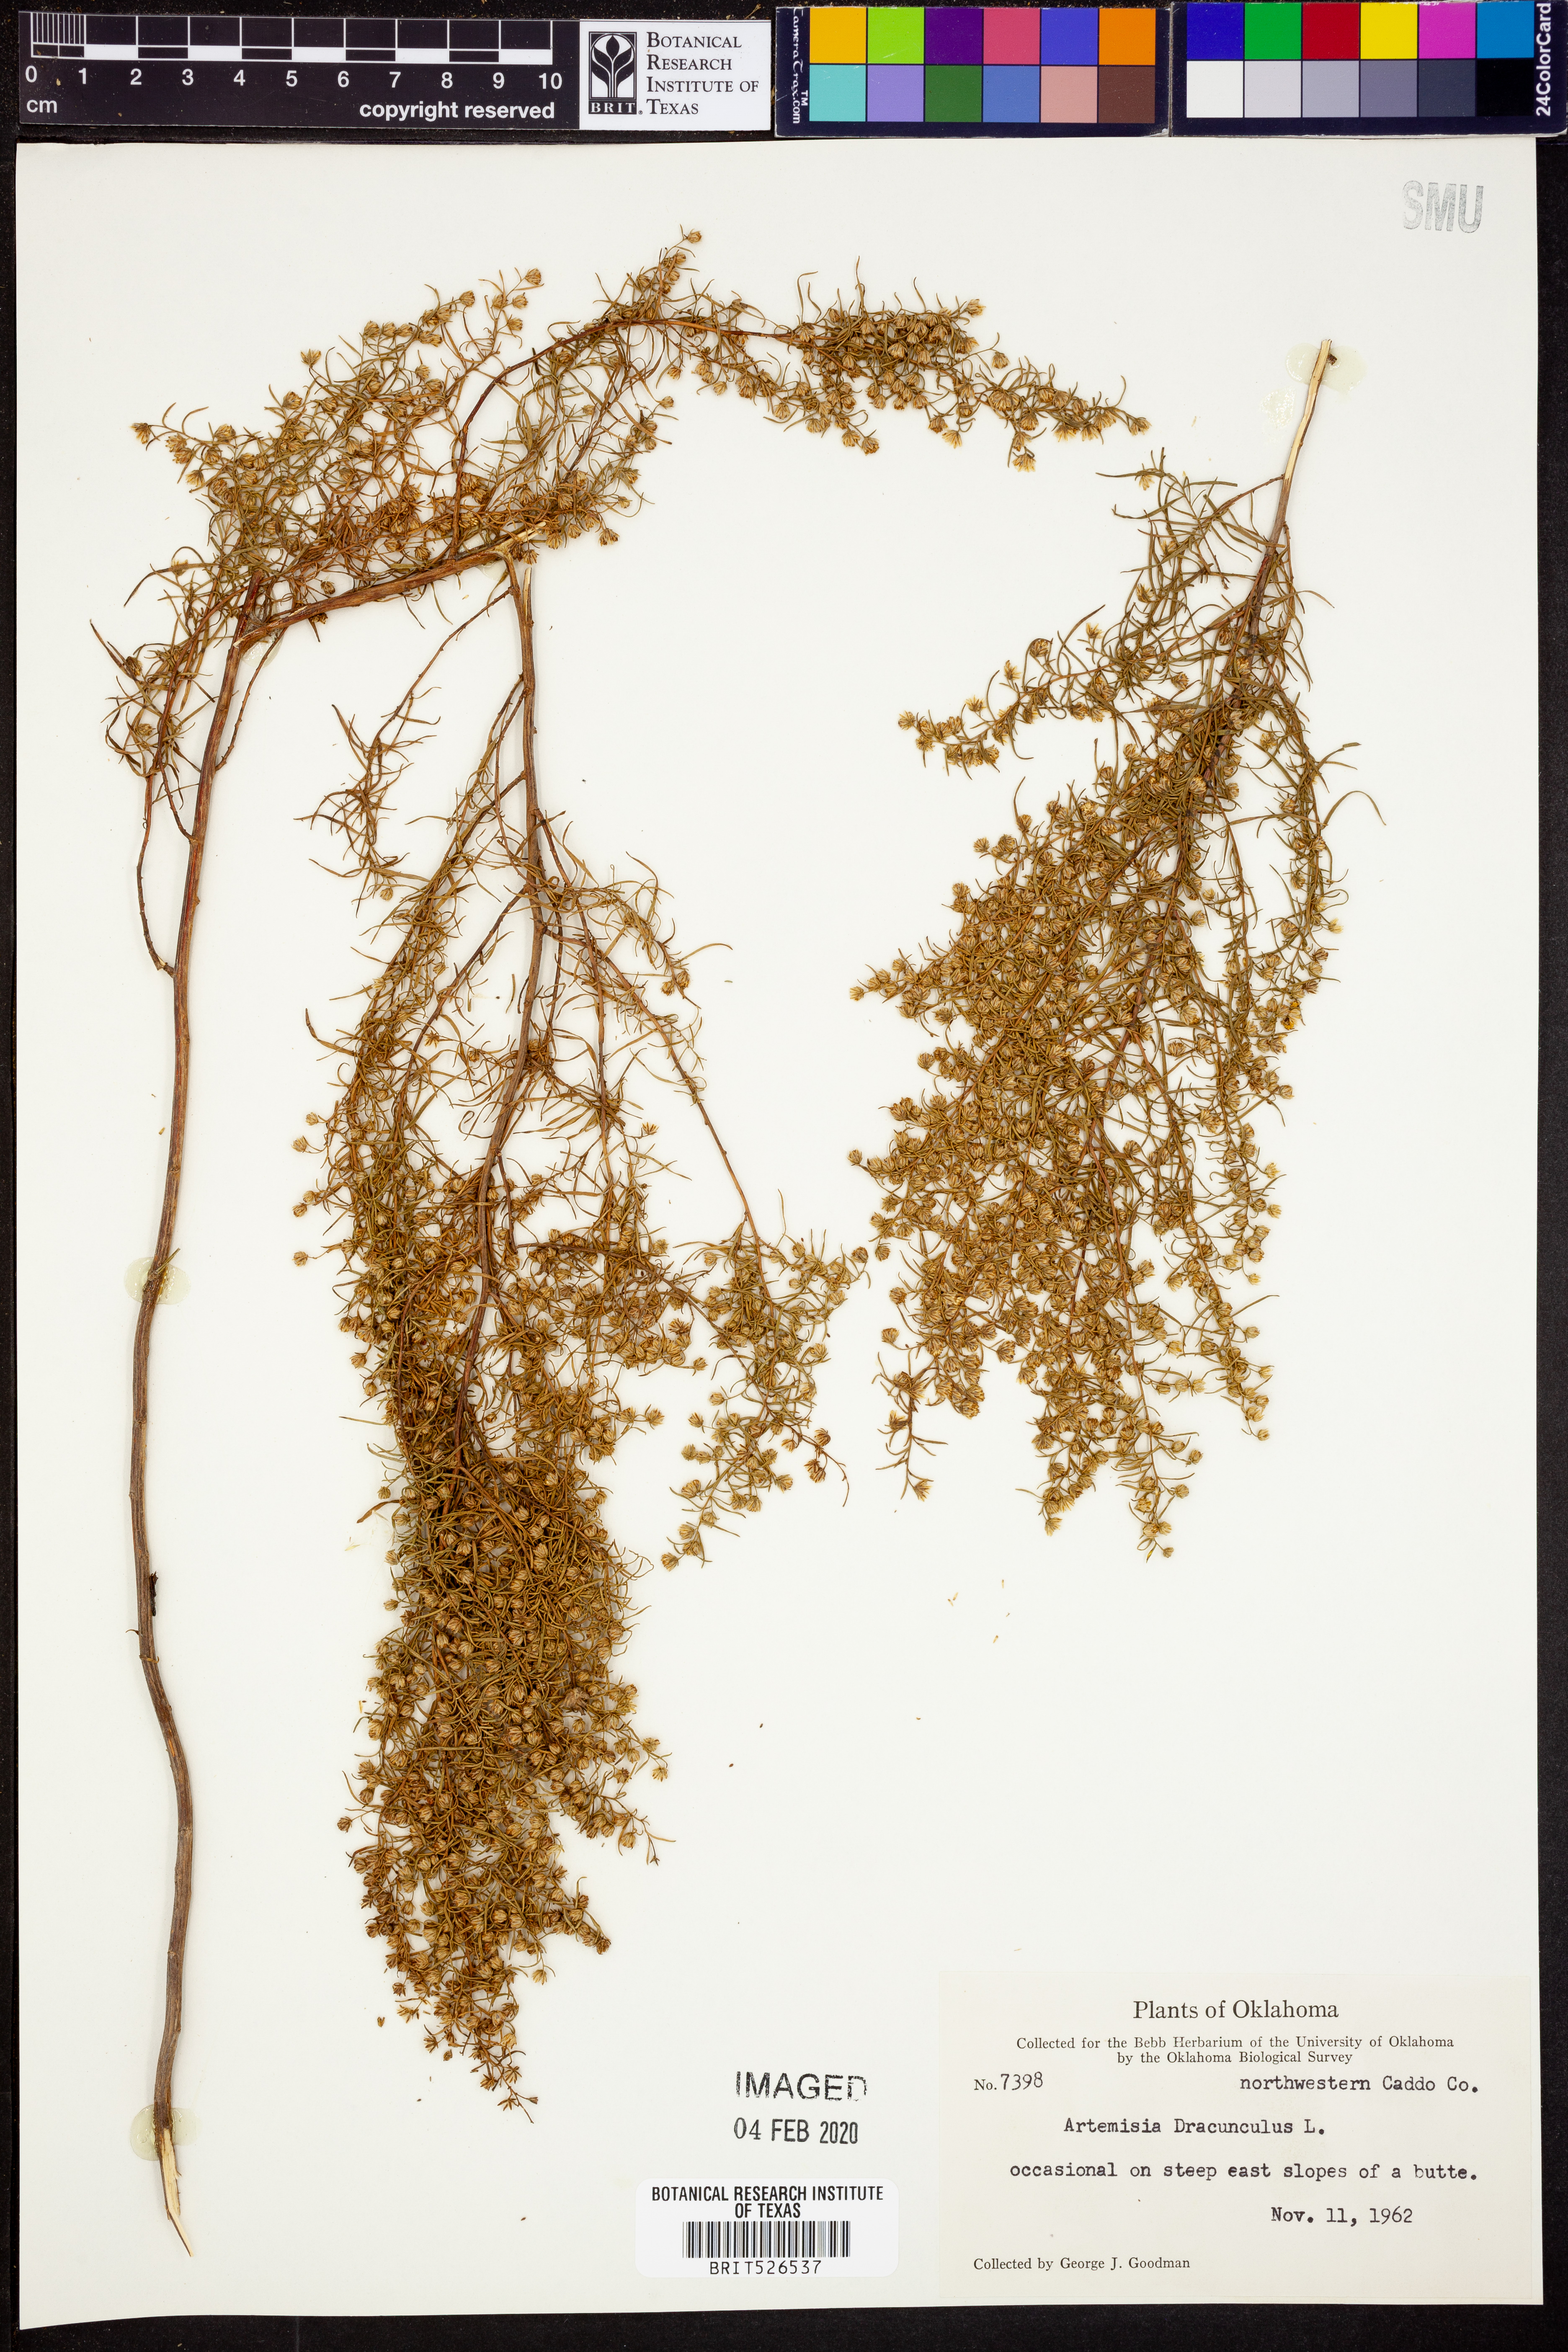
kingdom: Plantae
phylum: Tracheophyta
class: Magnoliopsida
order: Asterales
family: Asteraceae
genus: Artemisia
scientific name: Artemisia dracunculus
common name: Tarragon
